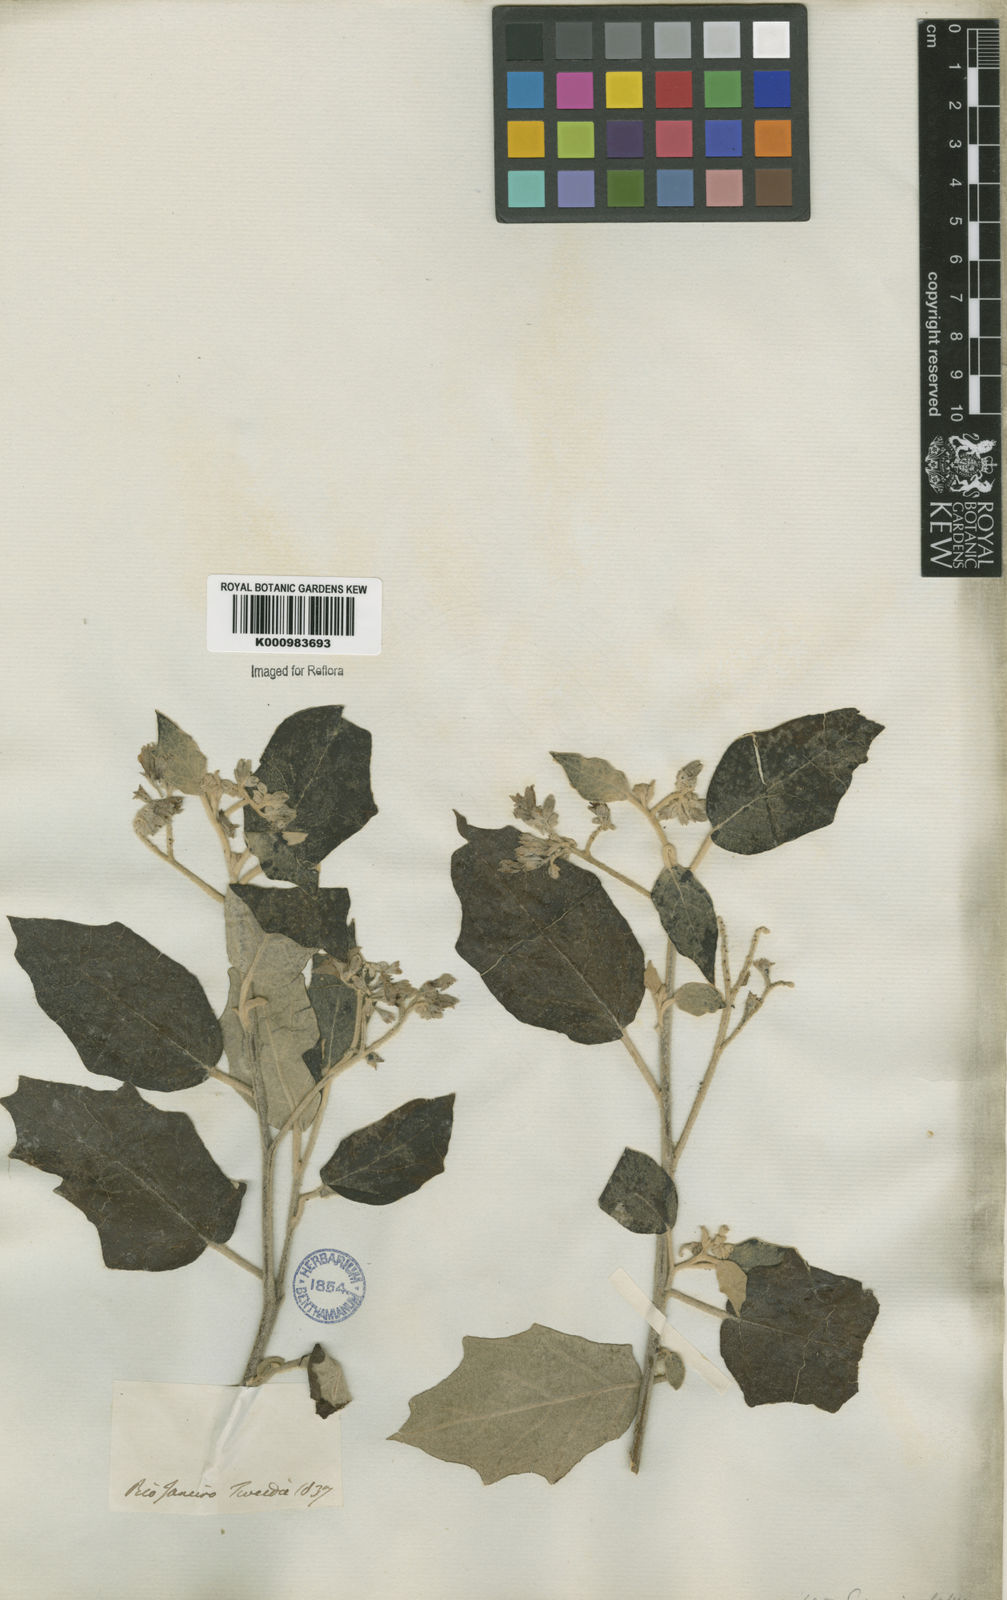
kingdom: Plantae
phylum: Tracheophyta
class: Magnoliopsida
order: Solanales
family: Solanaceae
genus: Solanum
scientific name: Solanum paniculatum
